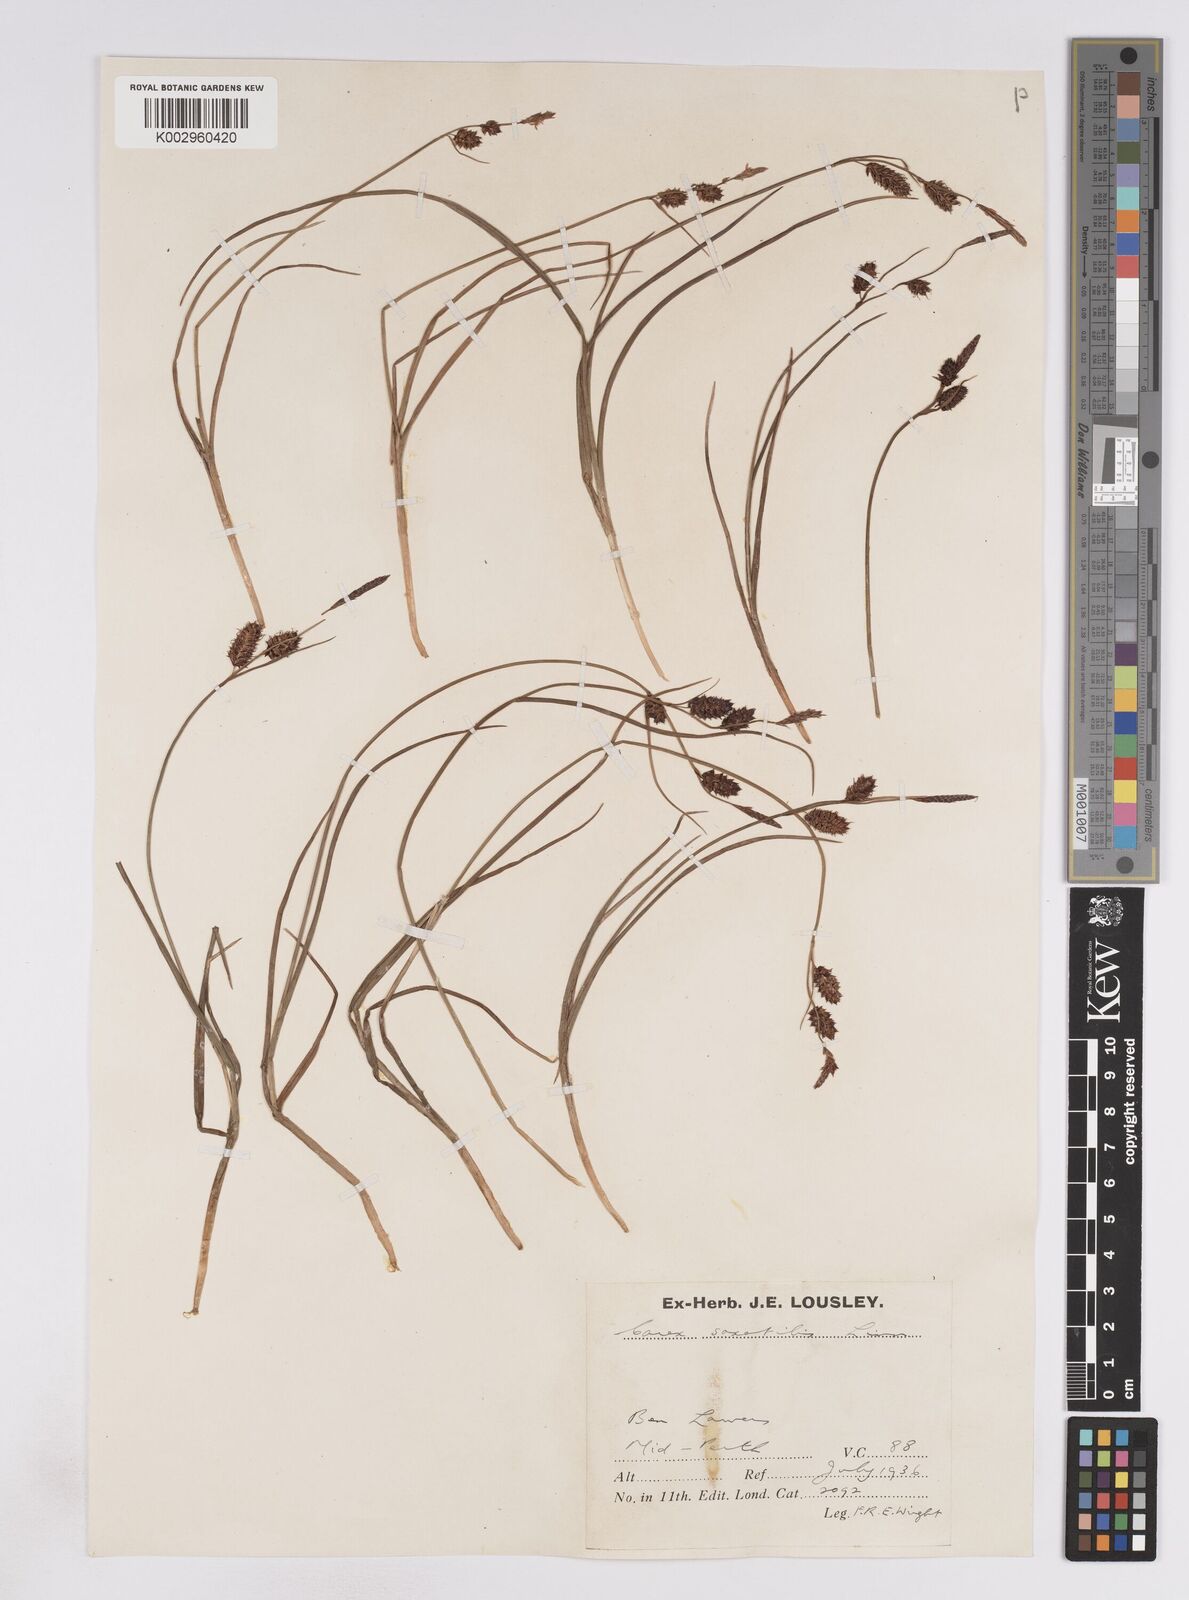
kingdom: Plantae
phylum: Tracheophyta
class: Liliopsida
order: Poales
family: Cyperaceae
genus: Carex
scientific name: Carex saxatilis
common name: Russet sedge
